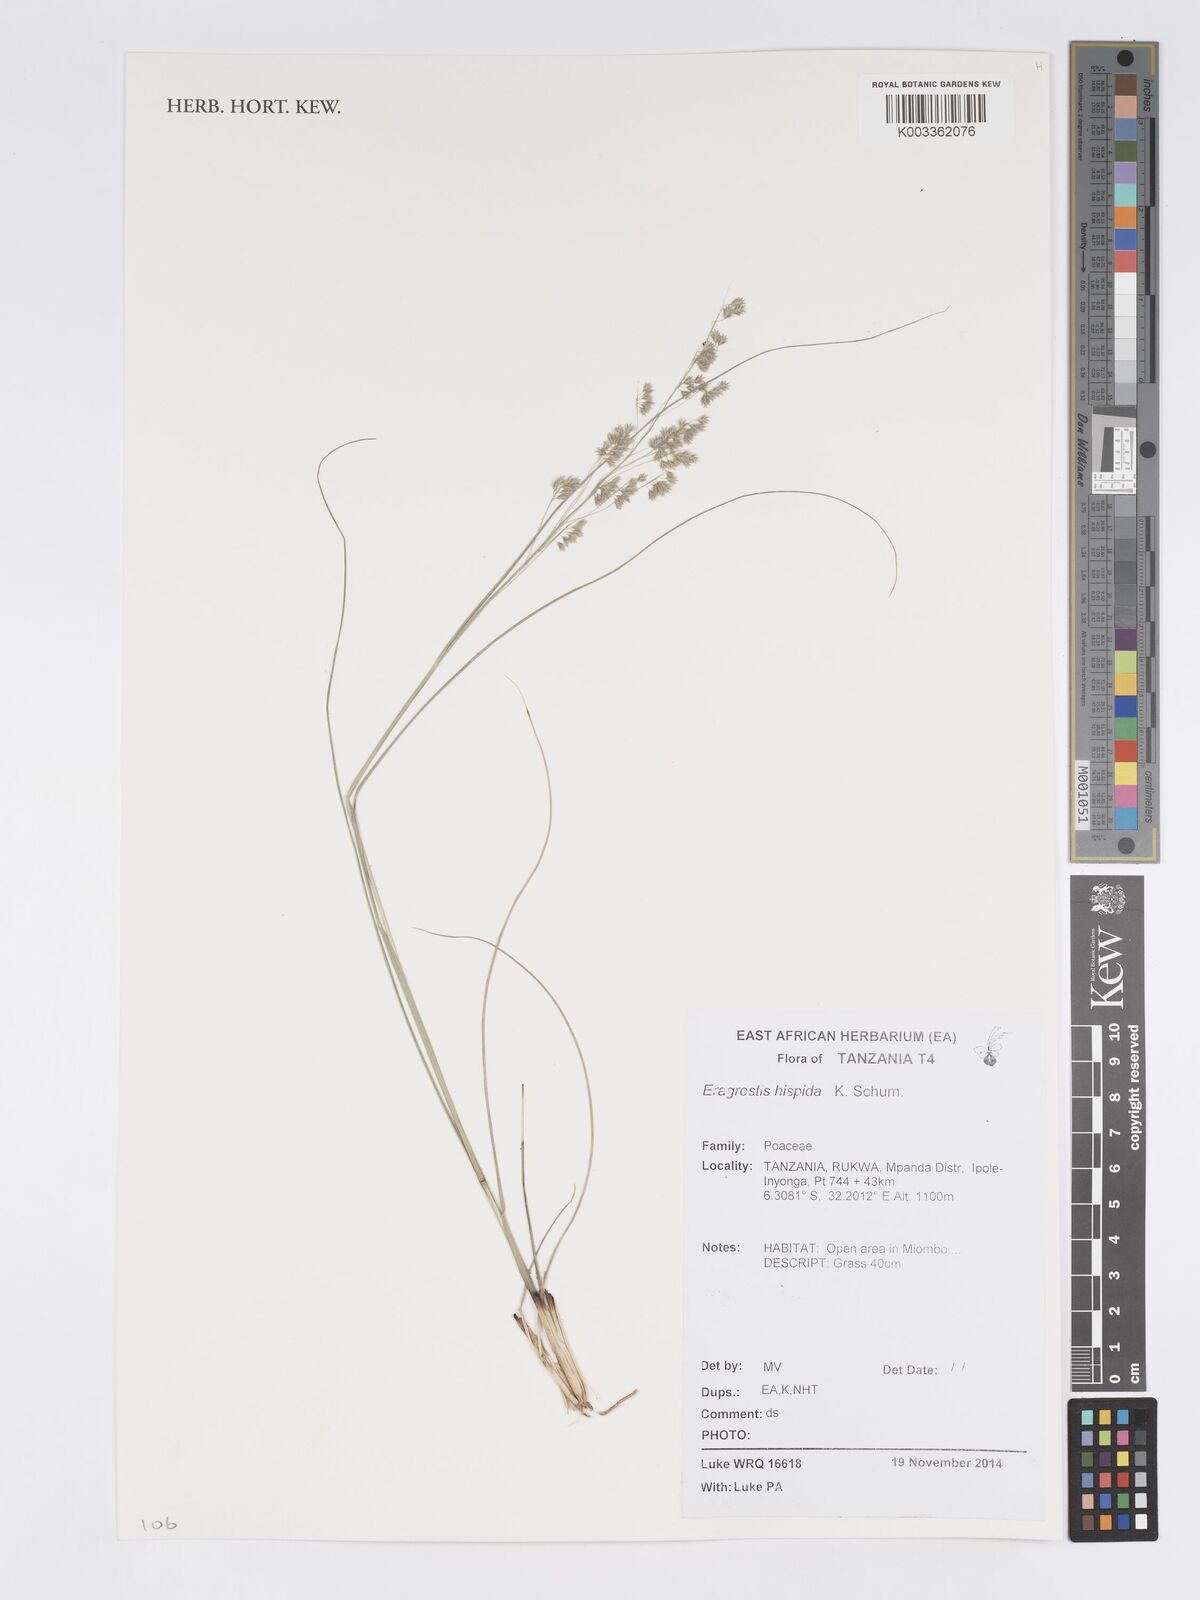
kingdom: Plantae
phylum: Tracheophyta
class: Liliopsida
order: Poales
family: Poaceae
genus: Eragrostis
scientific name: Eragrostis hispida
